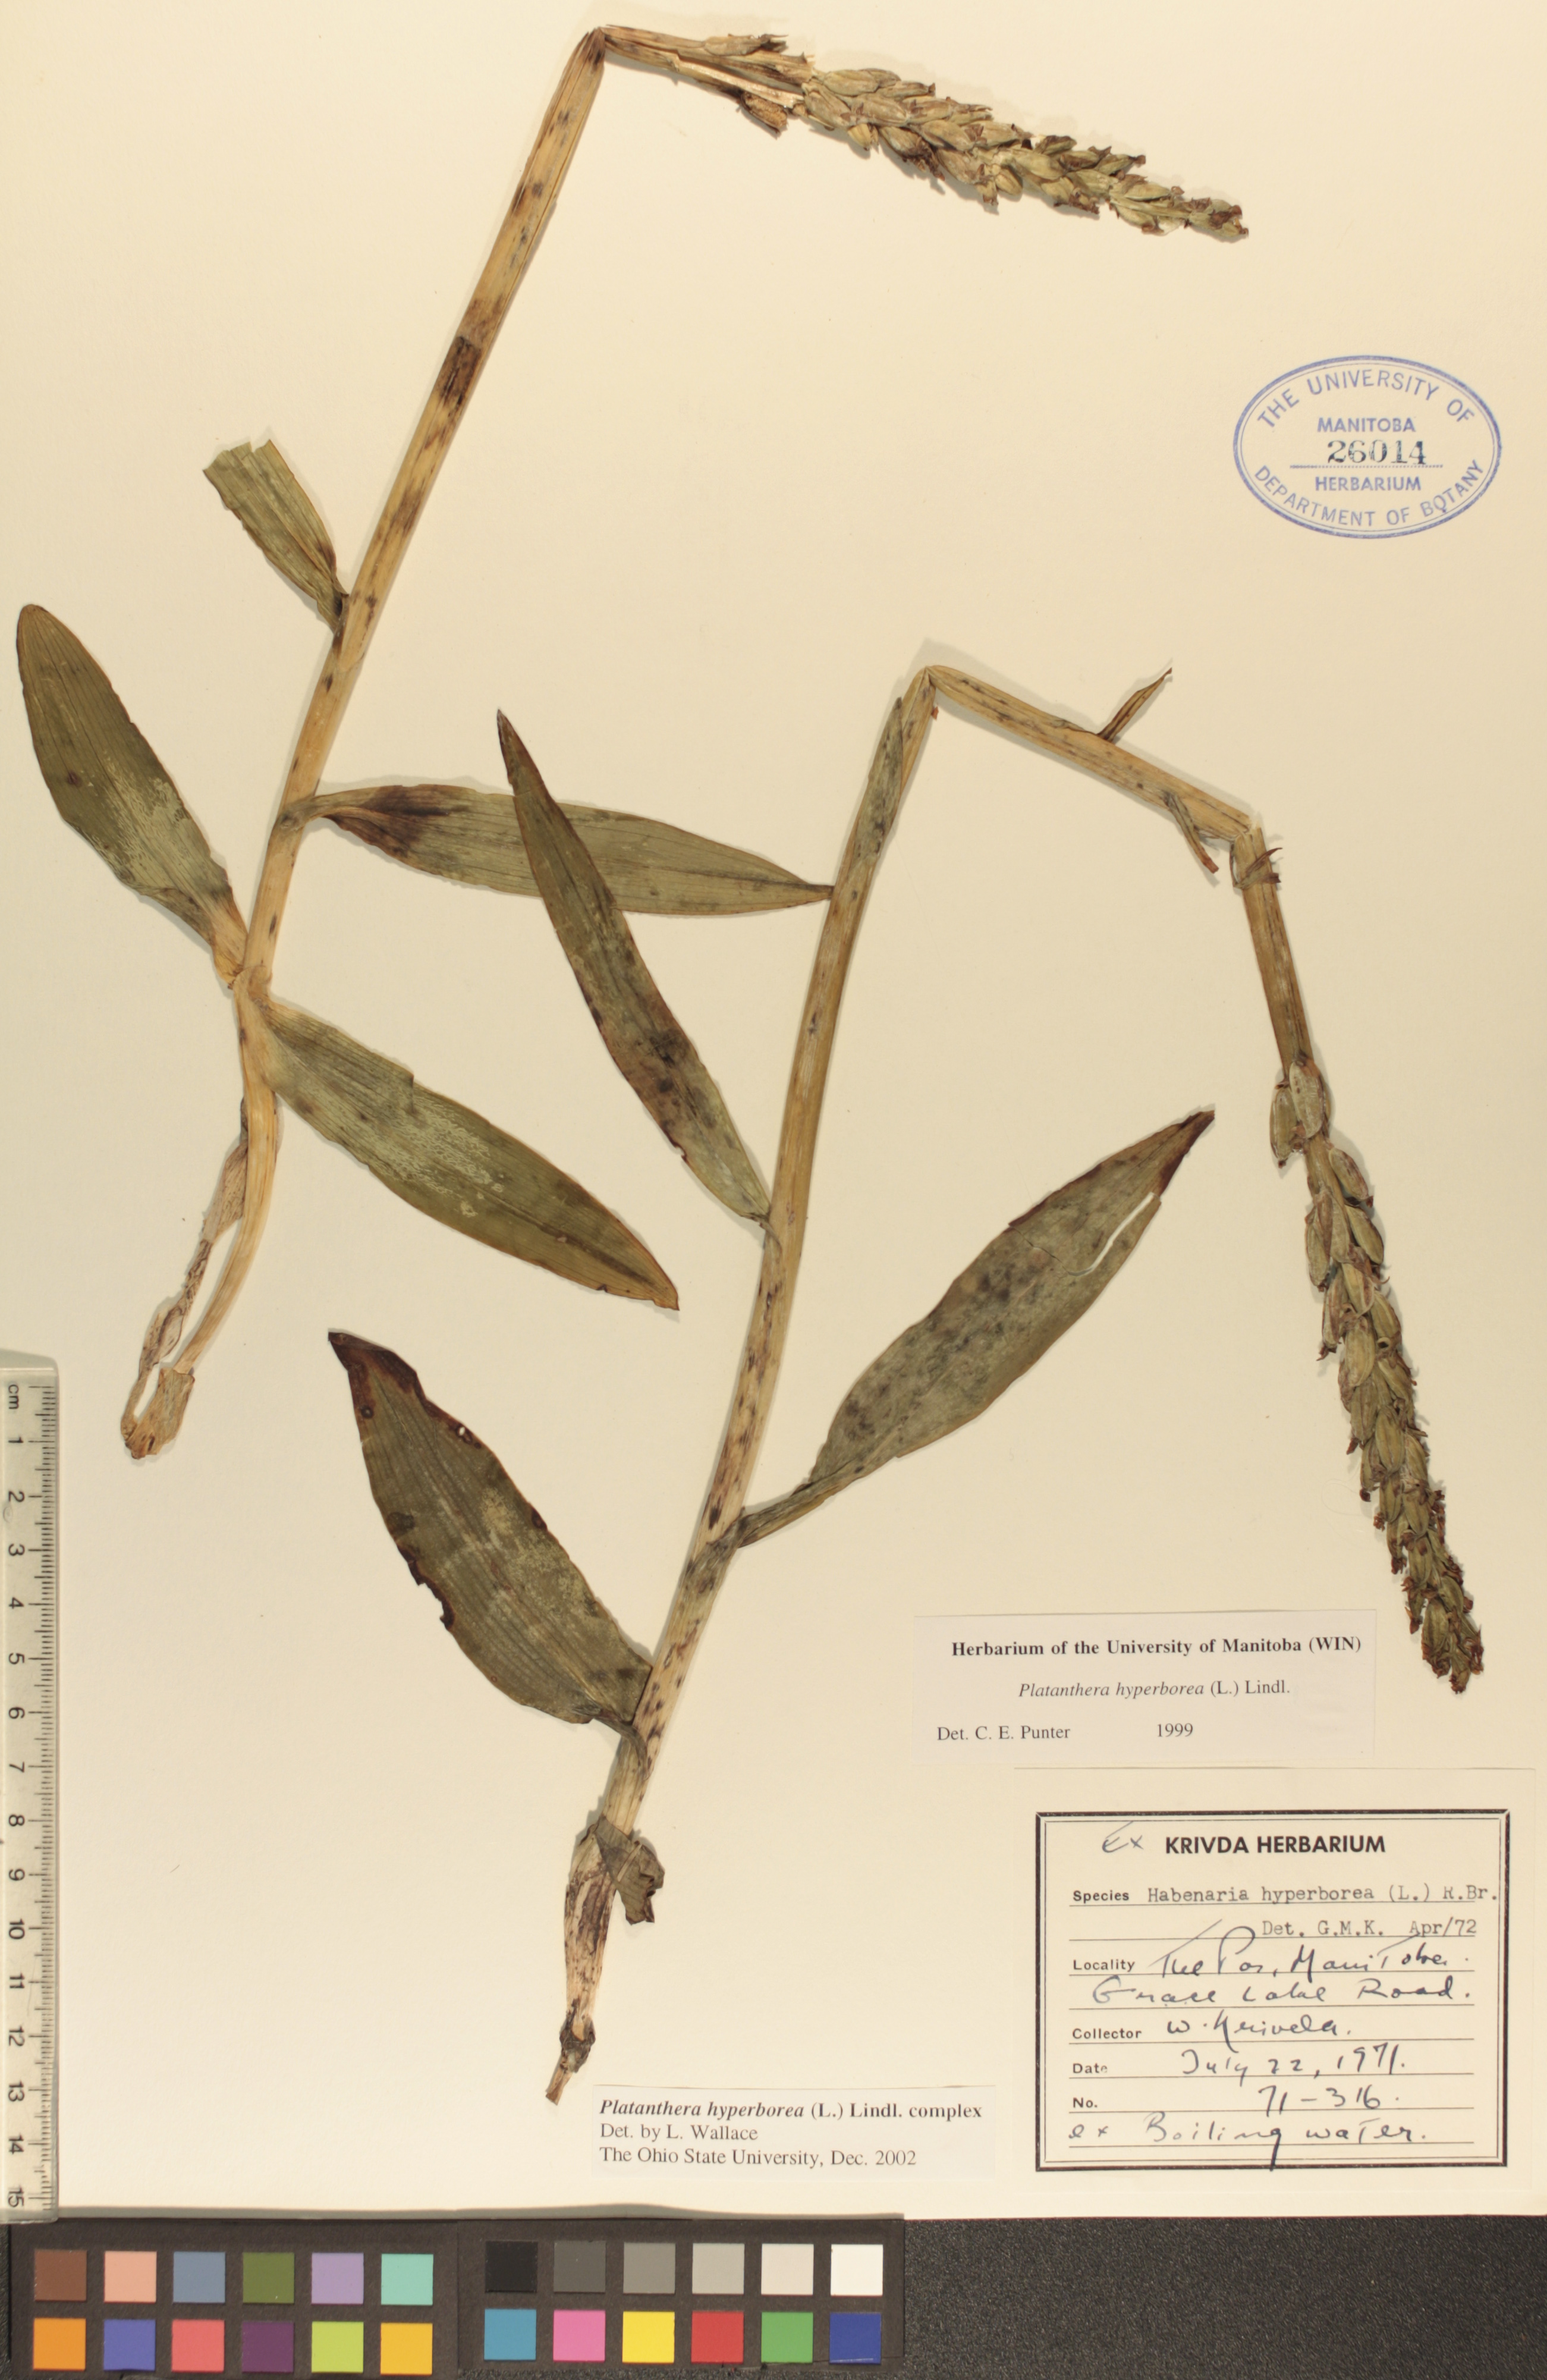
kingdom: Plantae
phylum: Tracheophyta
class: Liliopsida
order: Asparagales
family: Orchidaceae
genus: Platanthera
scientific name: Platanthera hyperborea
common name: Northern green orchid
